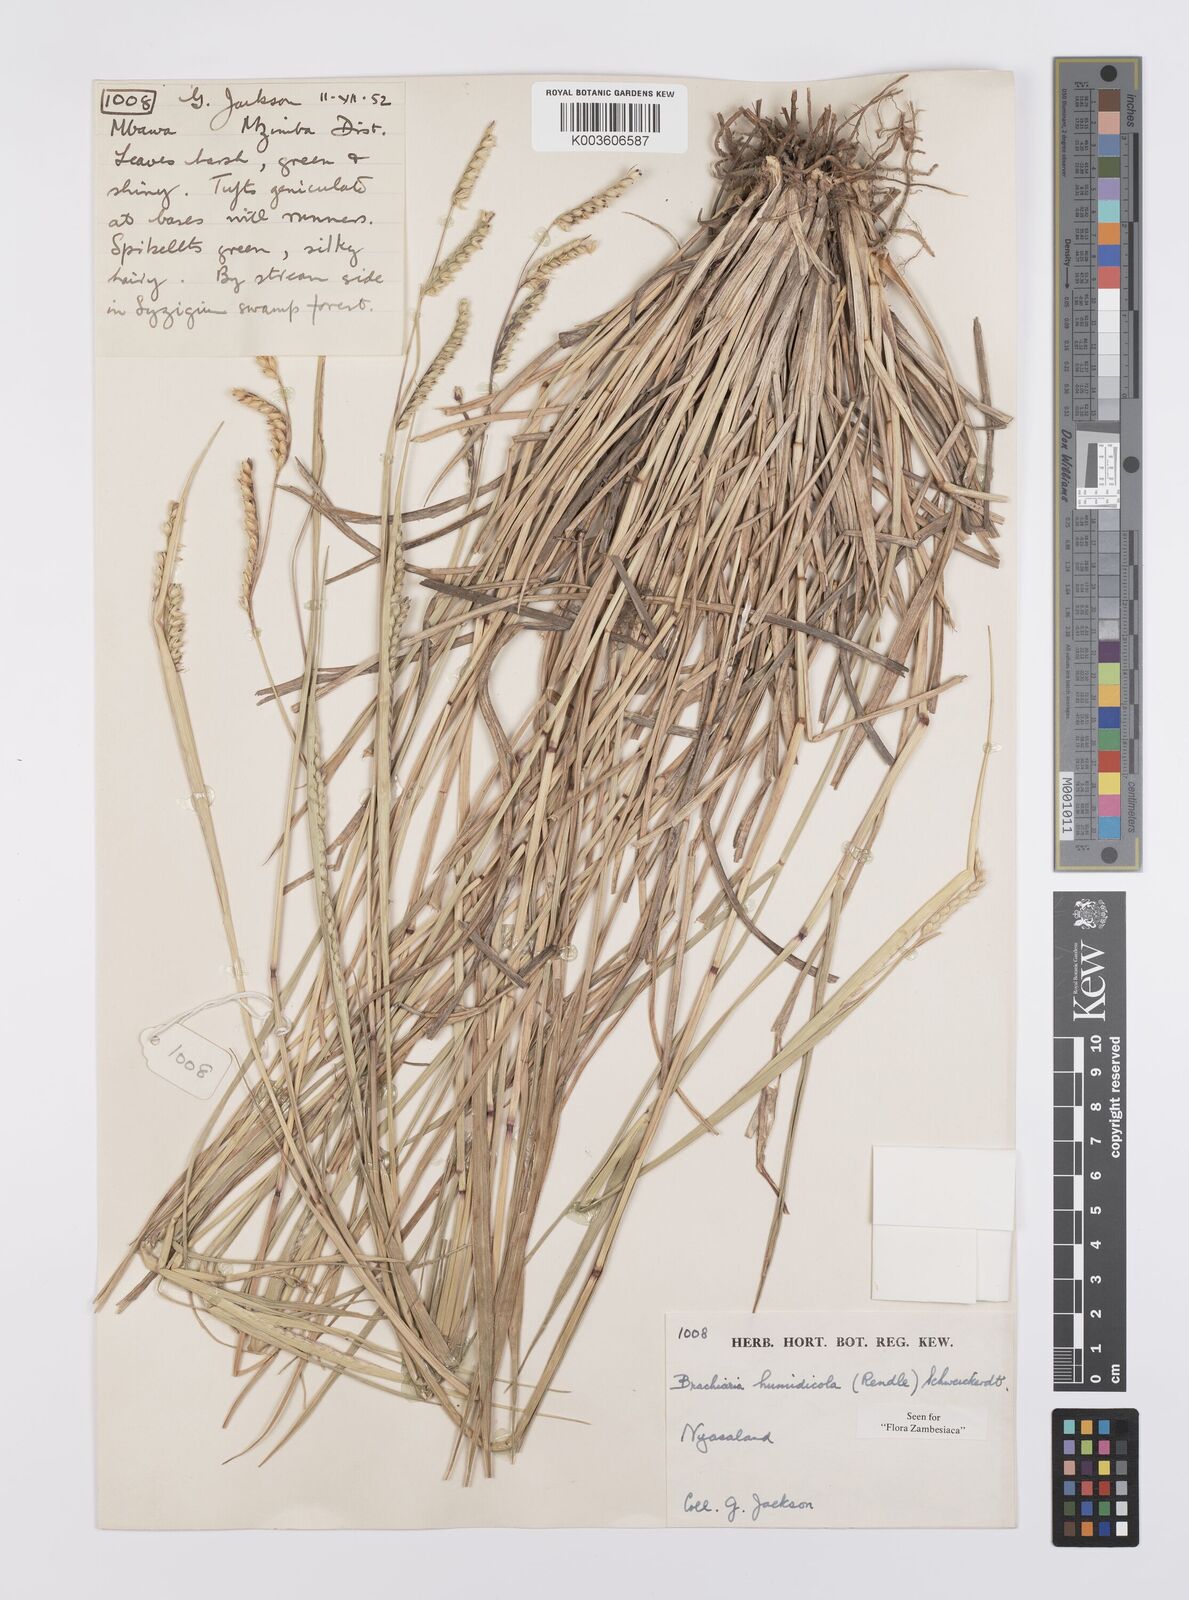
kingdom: Plantae
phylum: Tracheophyta
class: Liliopsida
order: Poales
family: Poaceae
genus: Urochloa
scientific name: Urochloa dictyoneura
